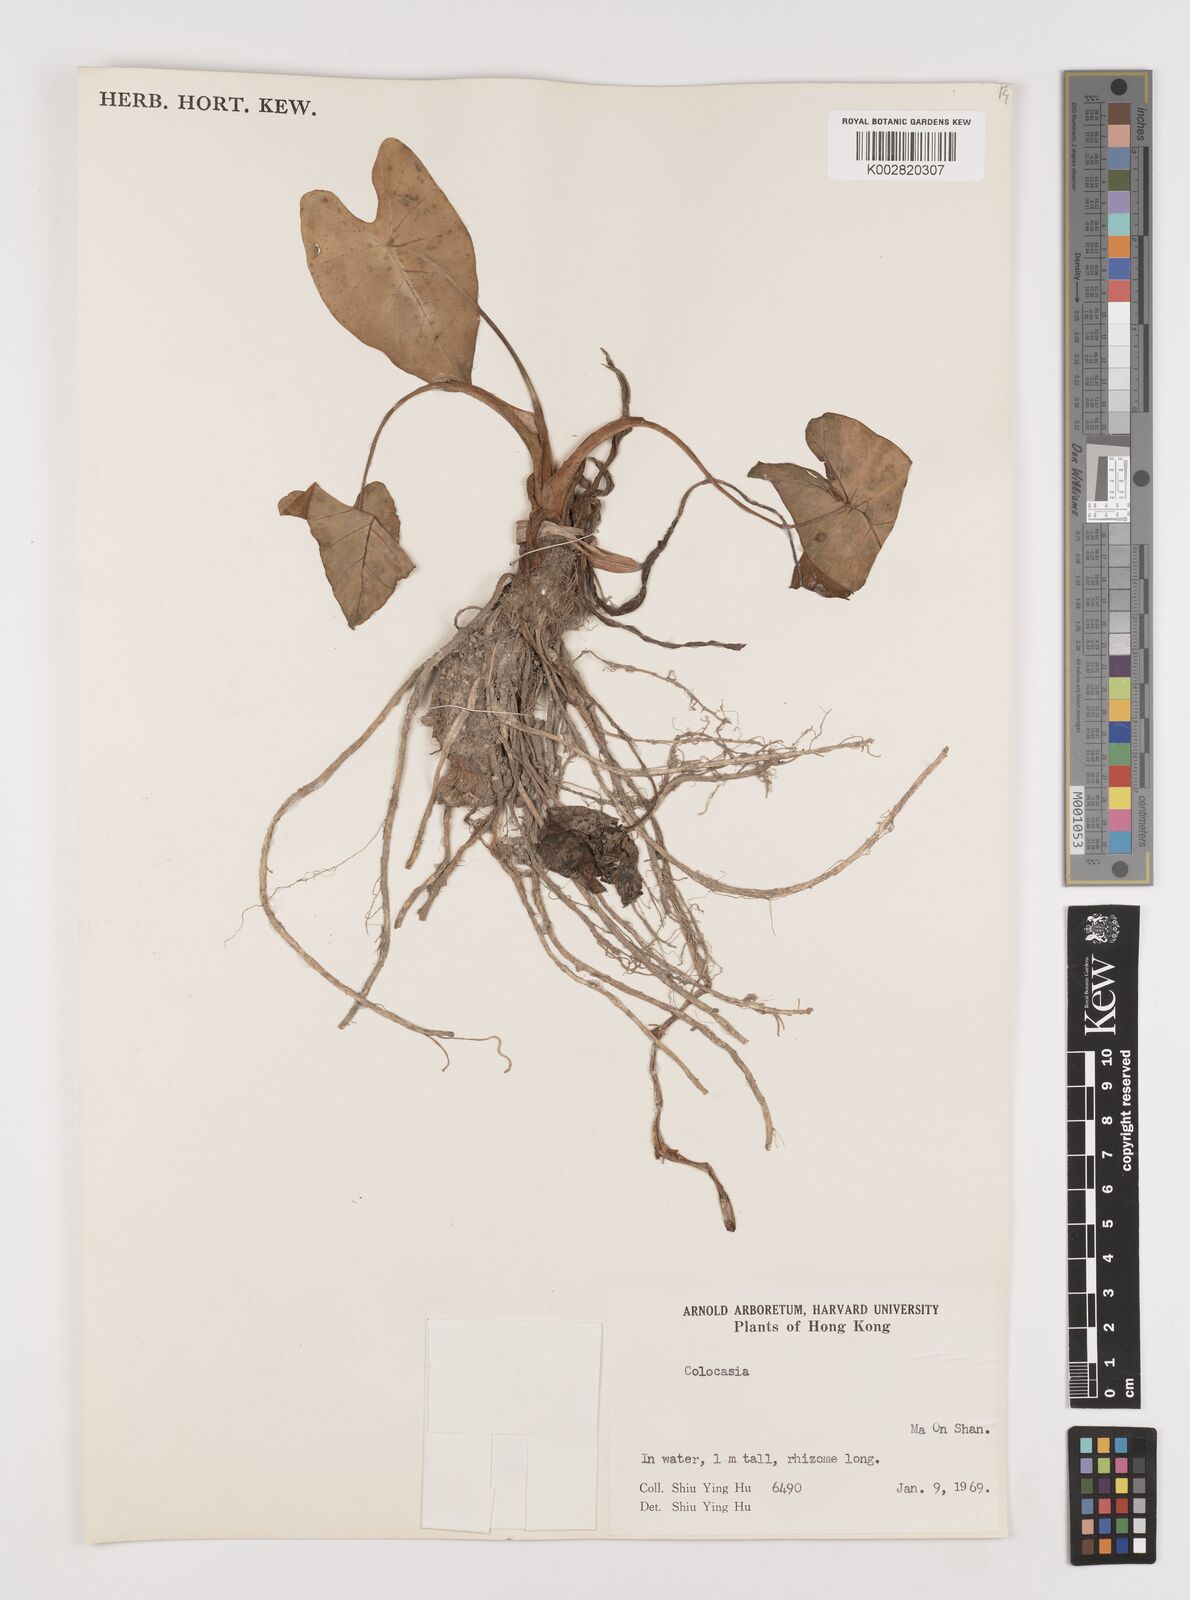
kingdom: Plantae
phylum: Tracheophyta
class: Liliopsida
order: Alismatales
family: Araceae
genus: Colocasia
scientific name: Colocasia esculenta
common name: Taro
